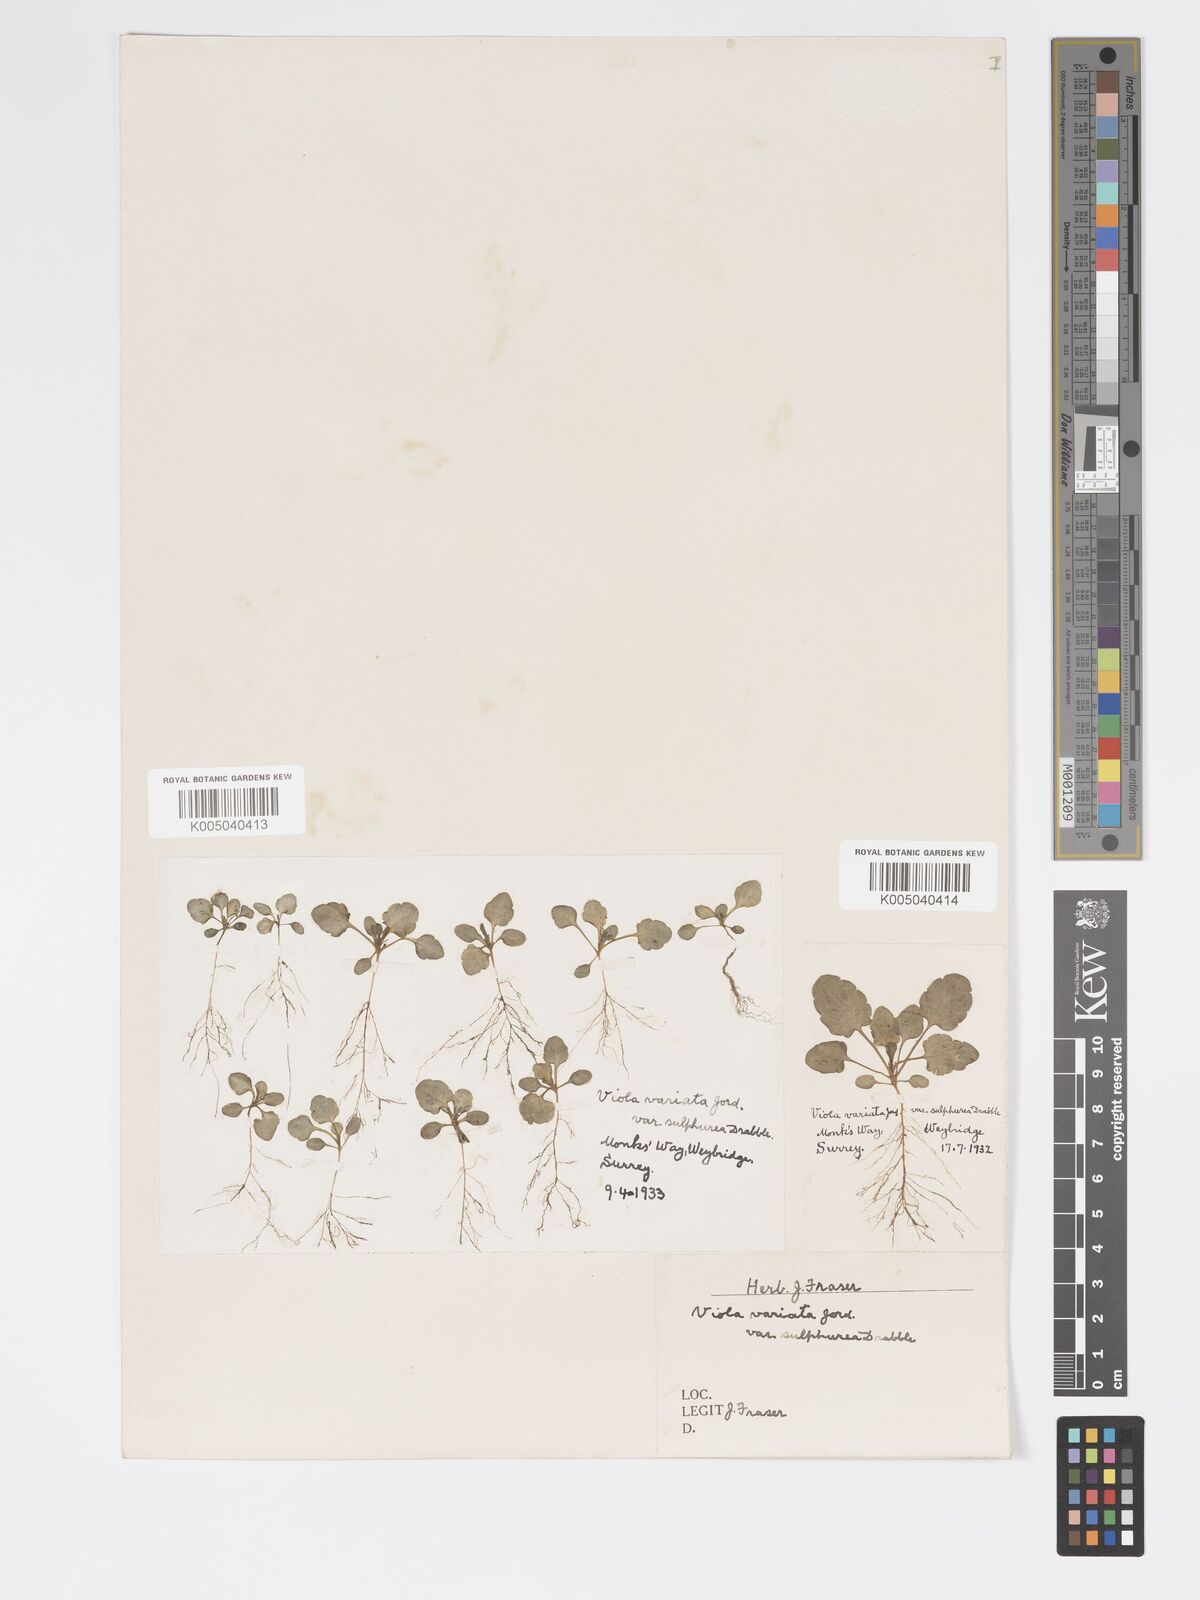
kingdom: Plantae
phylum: Tracheophyta
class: Magnoliopsida
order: Malpighiales
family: Violaceae
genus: Viola
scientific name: Viola arvensis
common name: Field pansy
